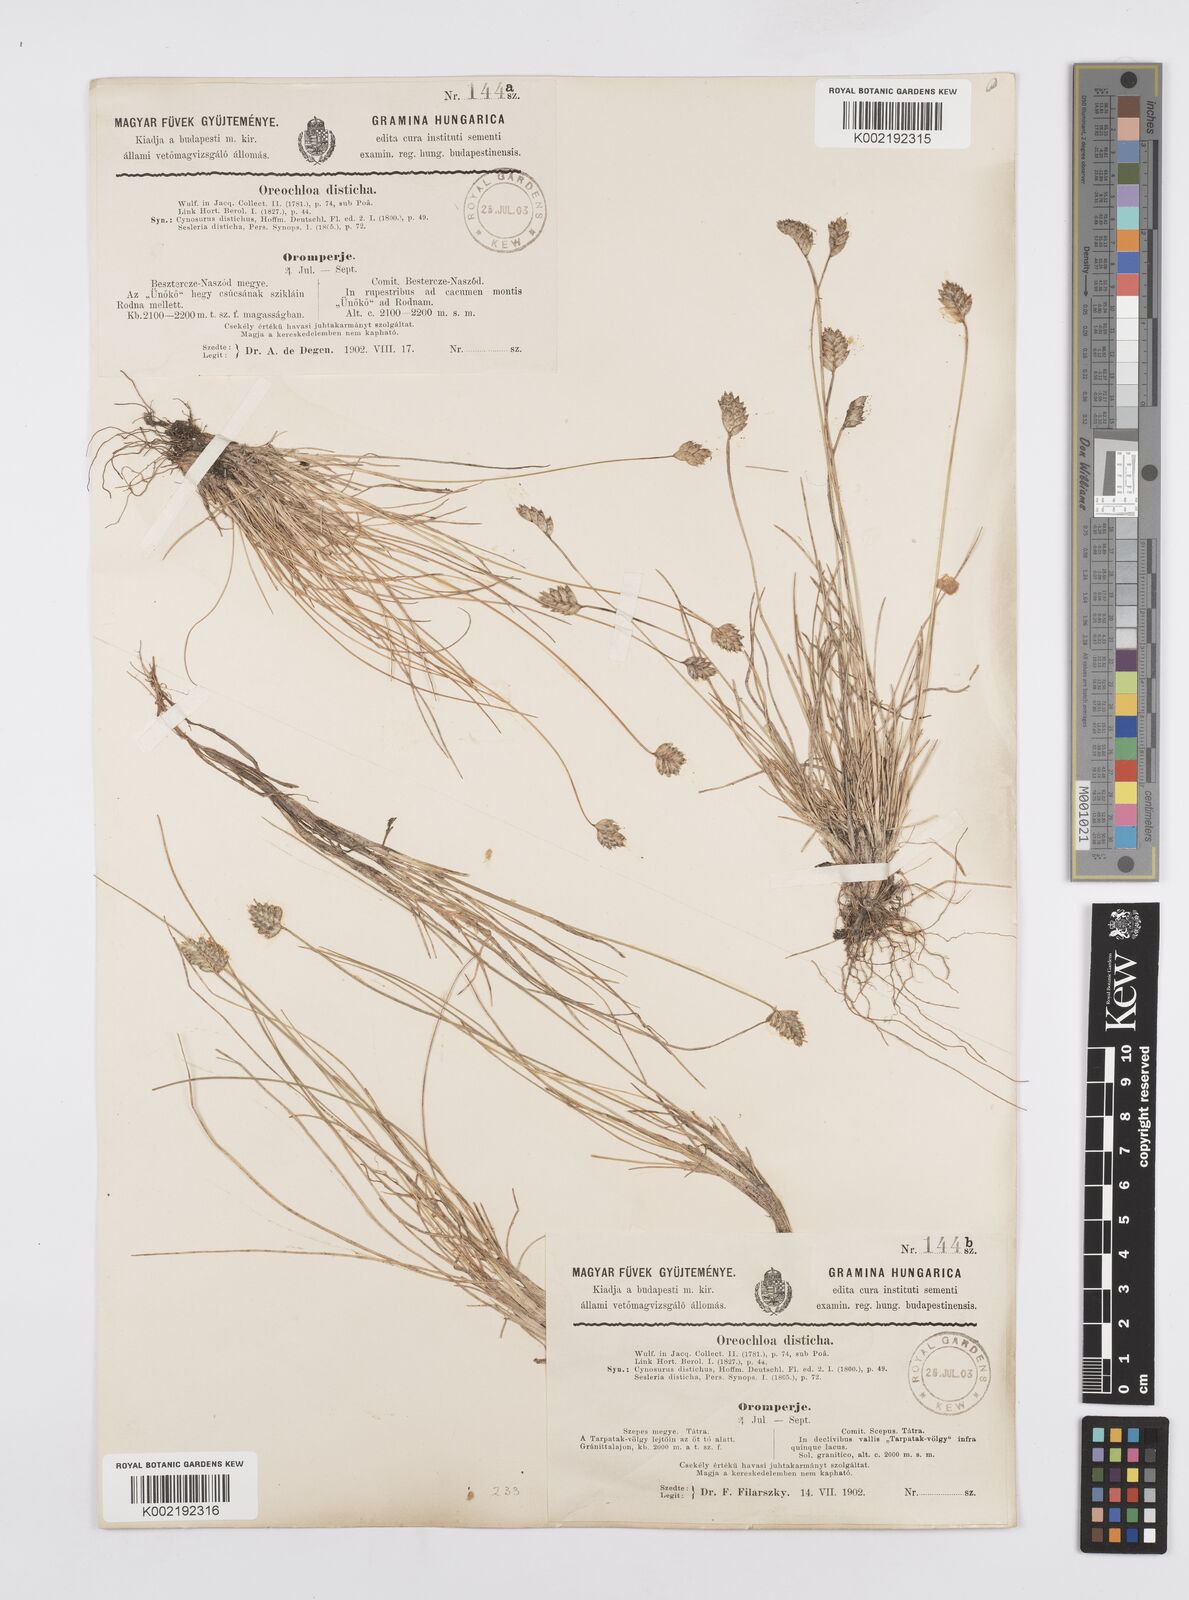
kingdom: Plantae
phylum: Tracheophyta
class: Liliopsida
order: Poales
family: Poaceae
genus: Oreochloa
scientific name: Oreochloa disticha
